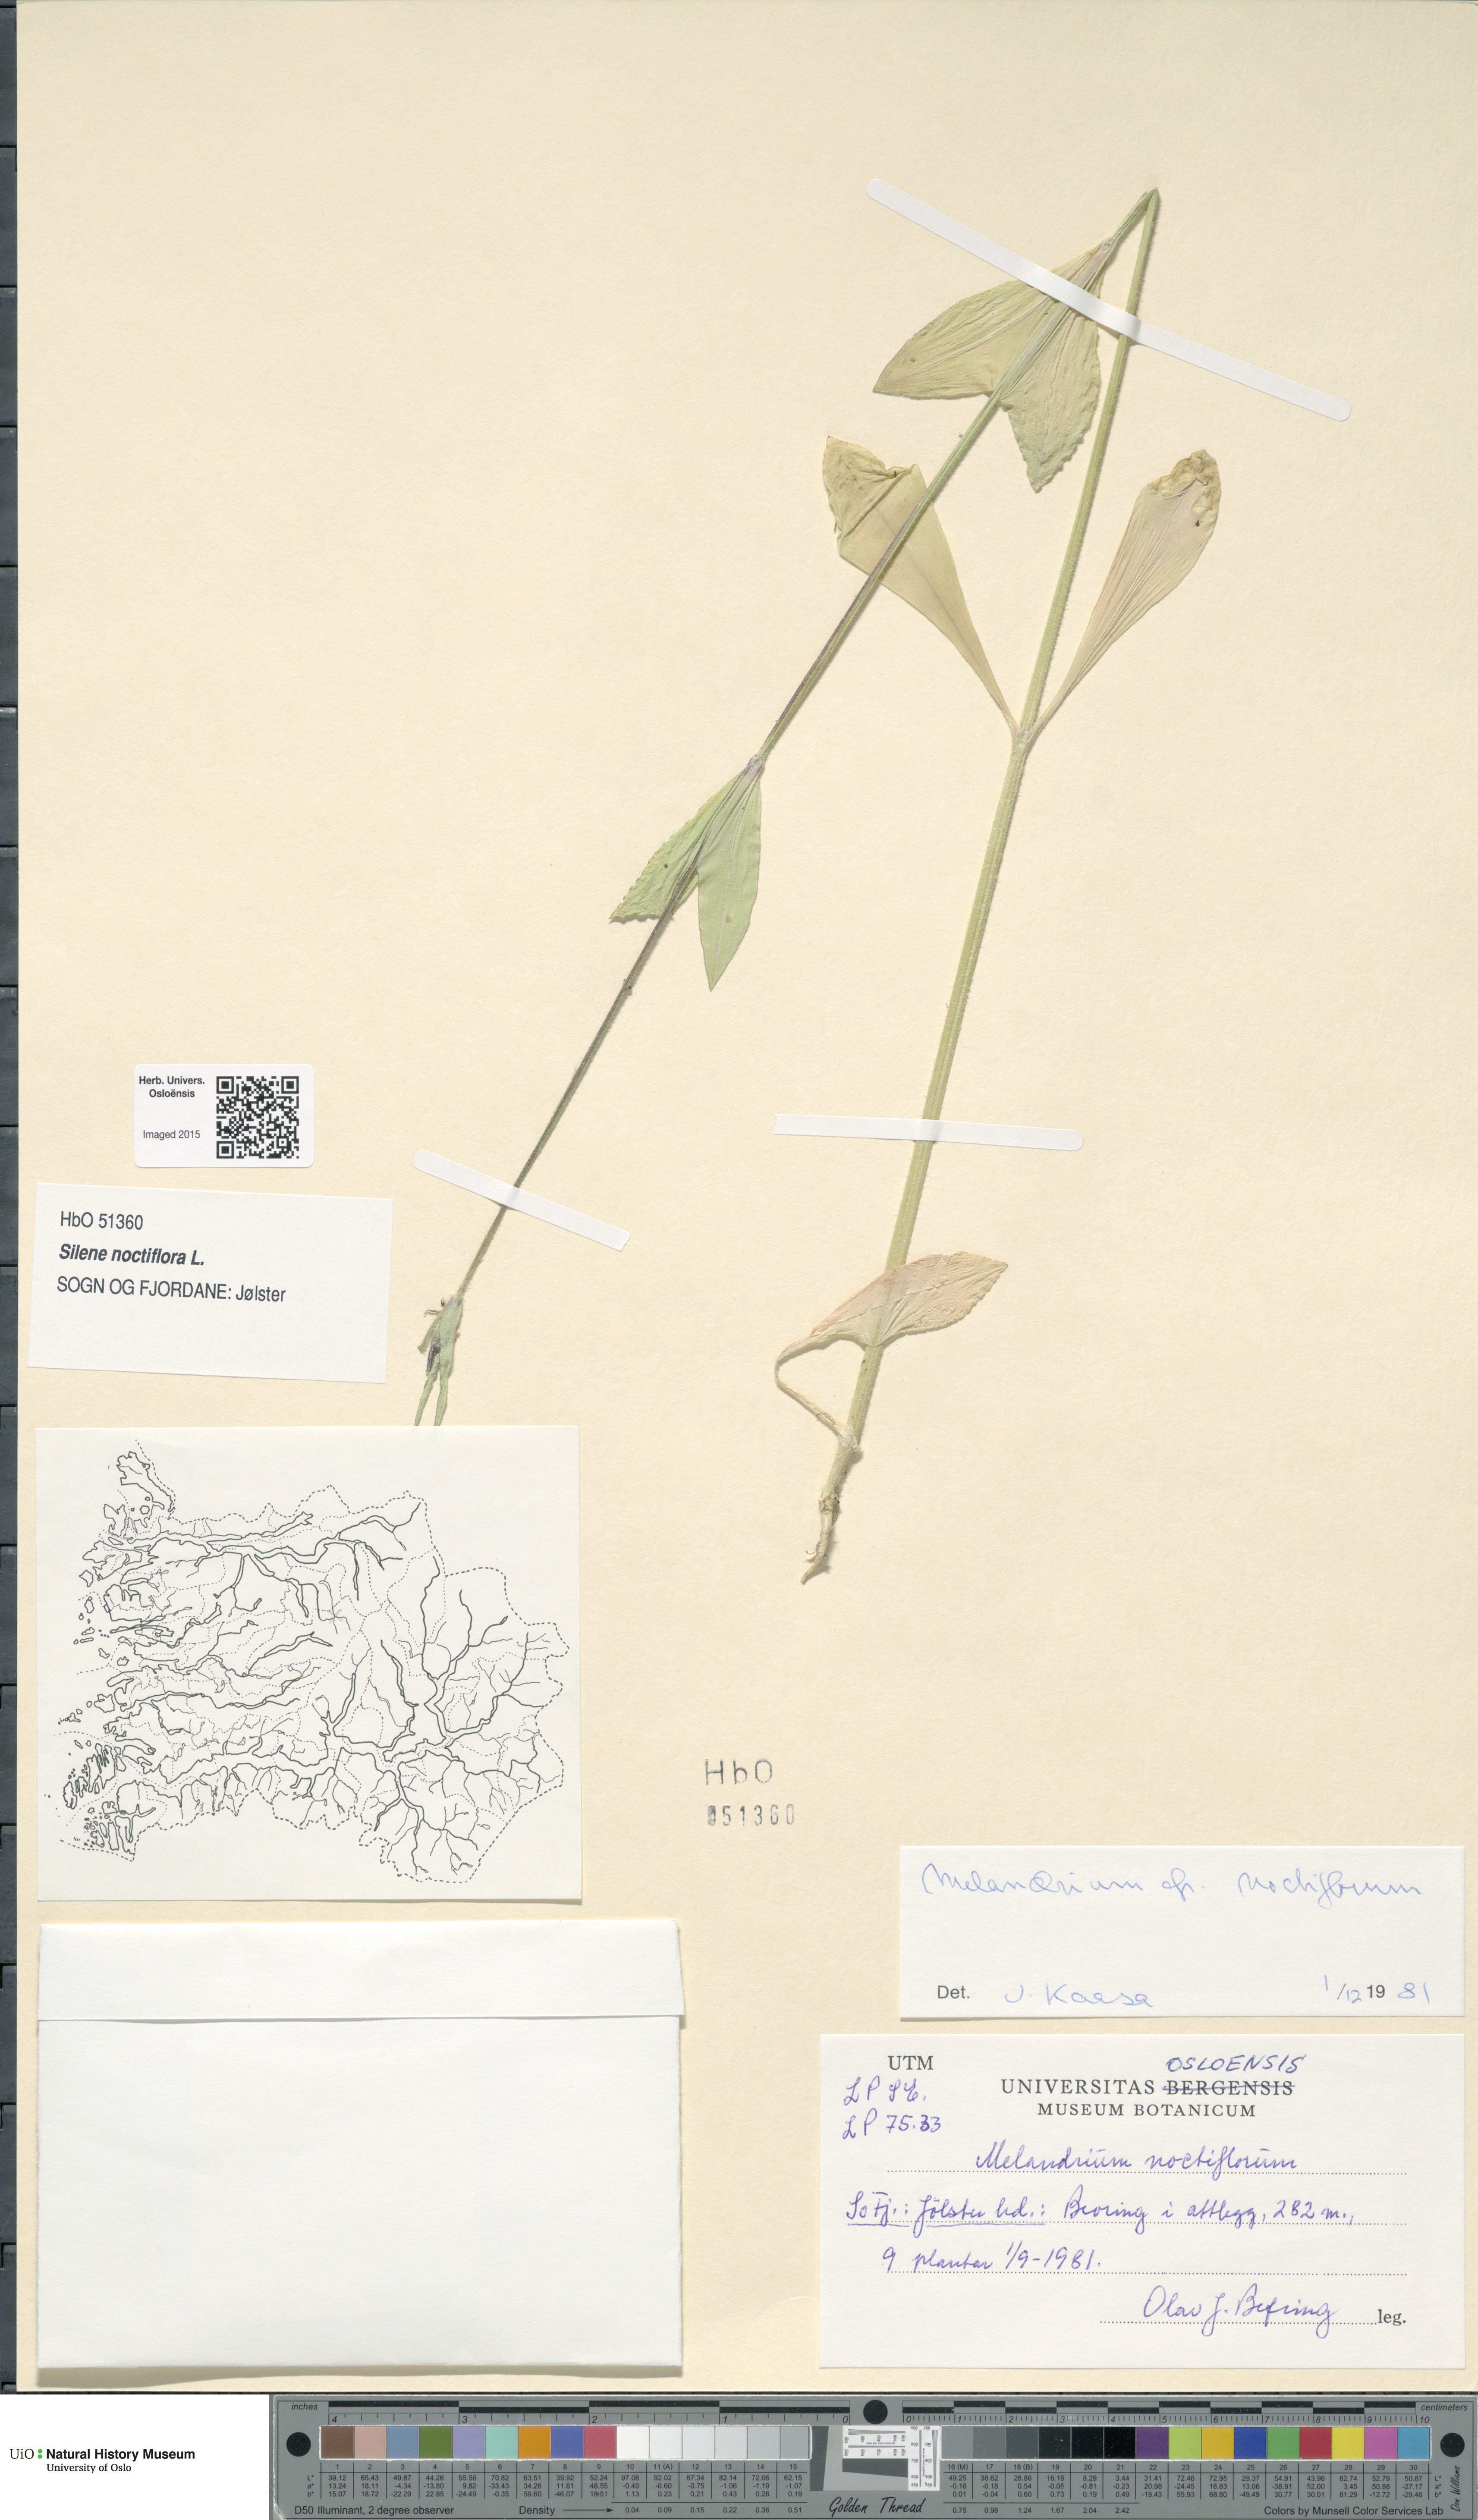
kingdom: Plantae
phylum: Tracheophyta
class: Magnoliopsida
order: Caryophyllales
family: Caryophyllaceae
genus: Silene
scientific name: Silene noctiflora
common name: Night-flowering catchfly
